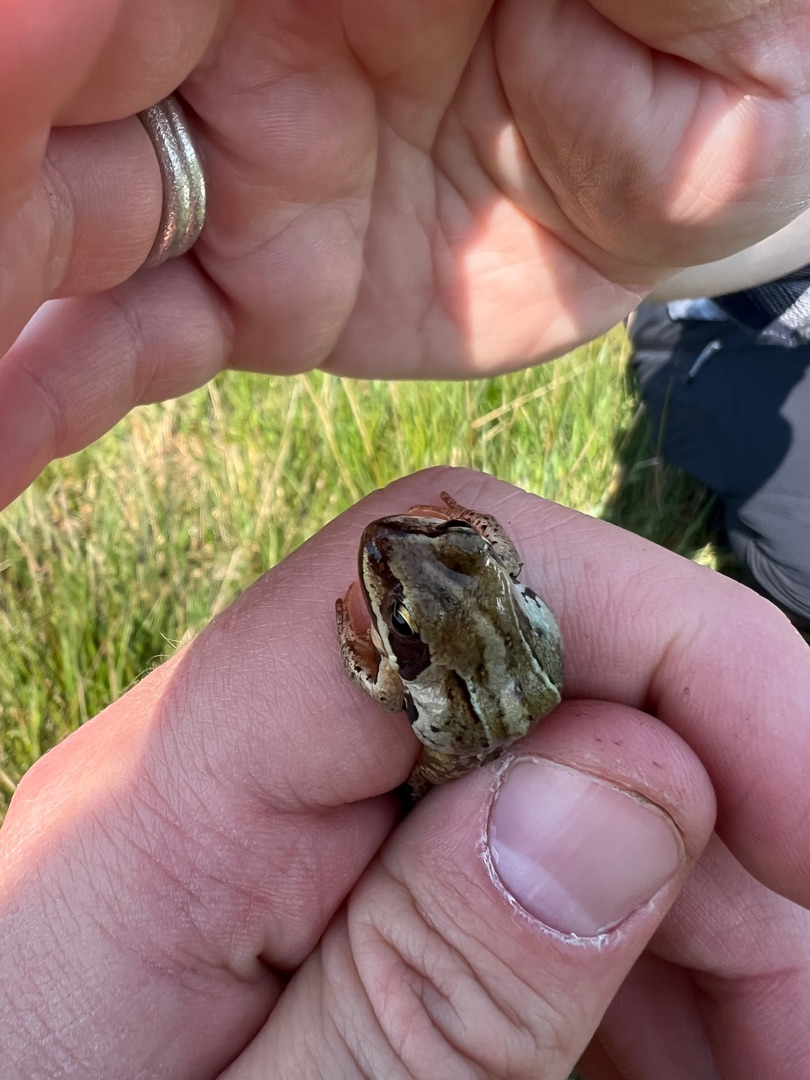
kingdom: Animalia
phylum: Chordata
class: Amphibia
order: Anura
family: Ranidae
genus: Rana
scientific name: Rana arvalis
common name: Spidssnudet frø
